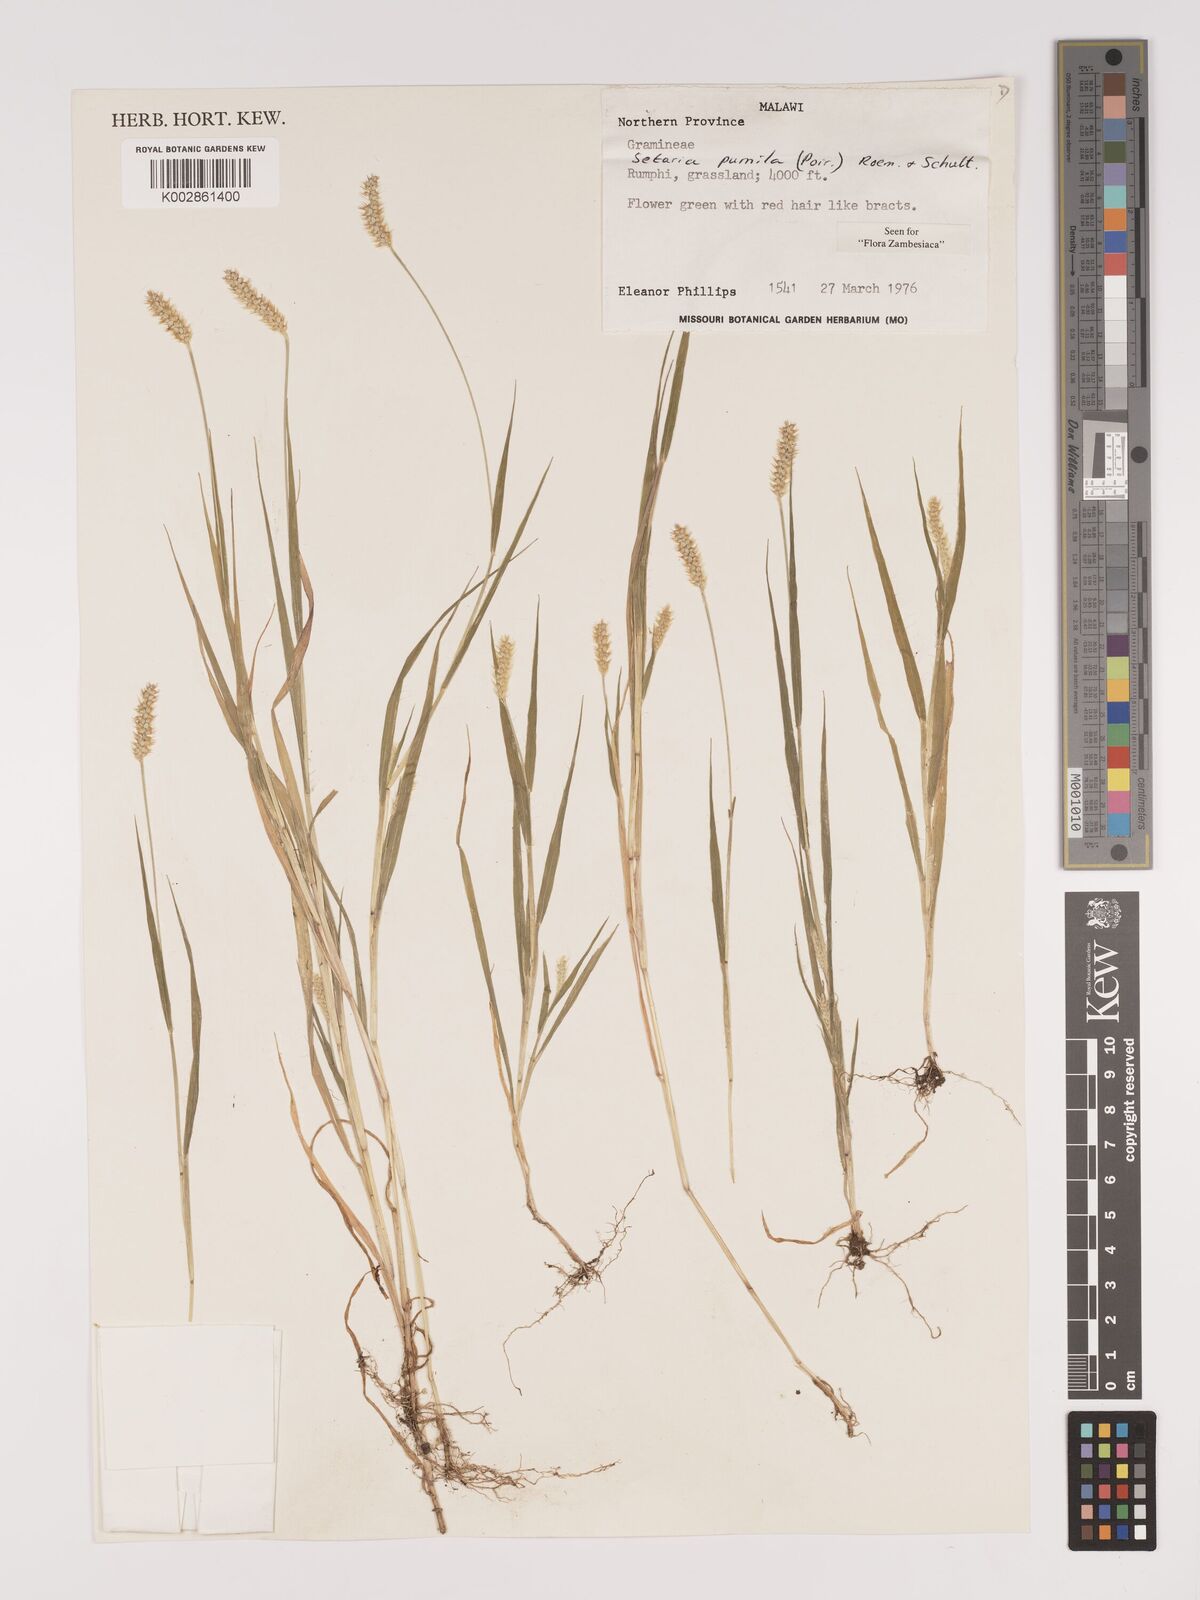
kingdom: Plantae
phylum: Tracheophyta
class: Liliopsida
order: Poales
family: Poaceae
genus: Setaria
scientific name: Setaria pumila
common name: Yellow bristle-grass
